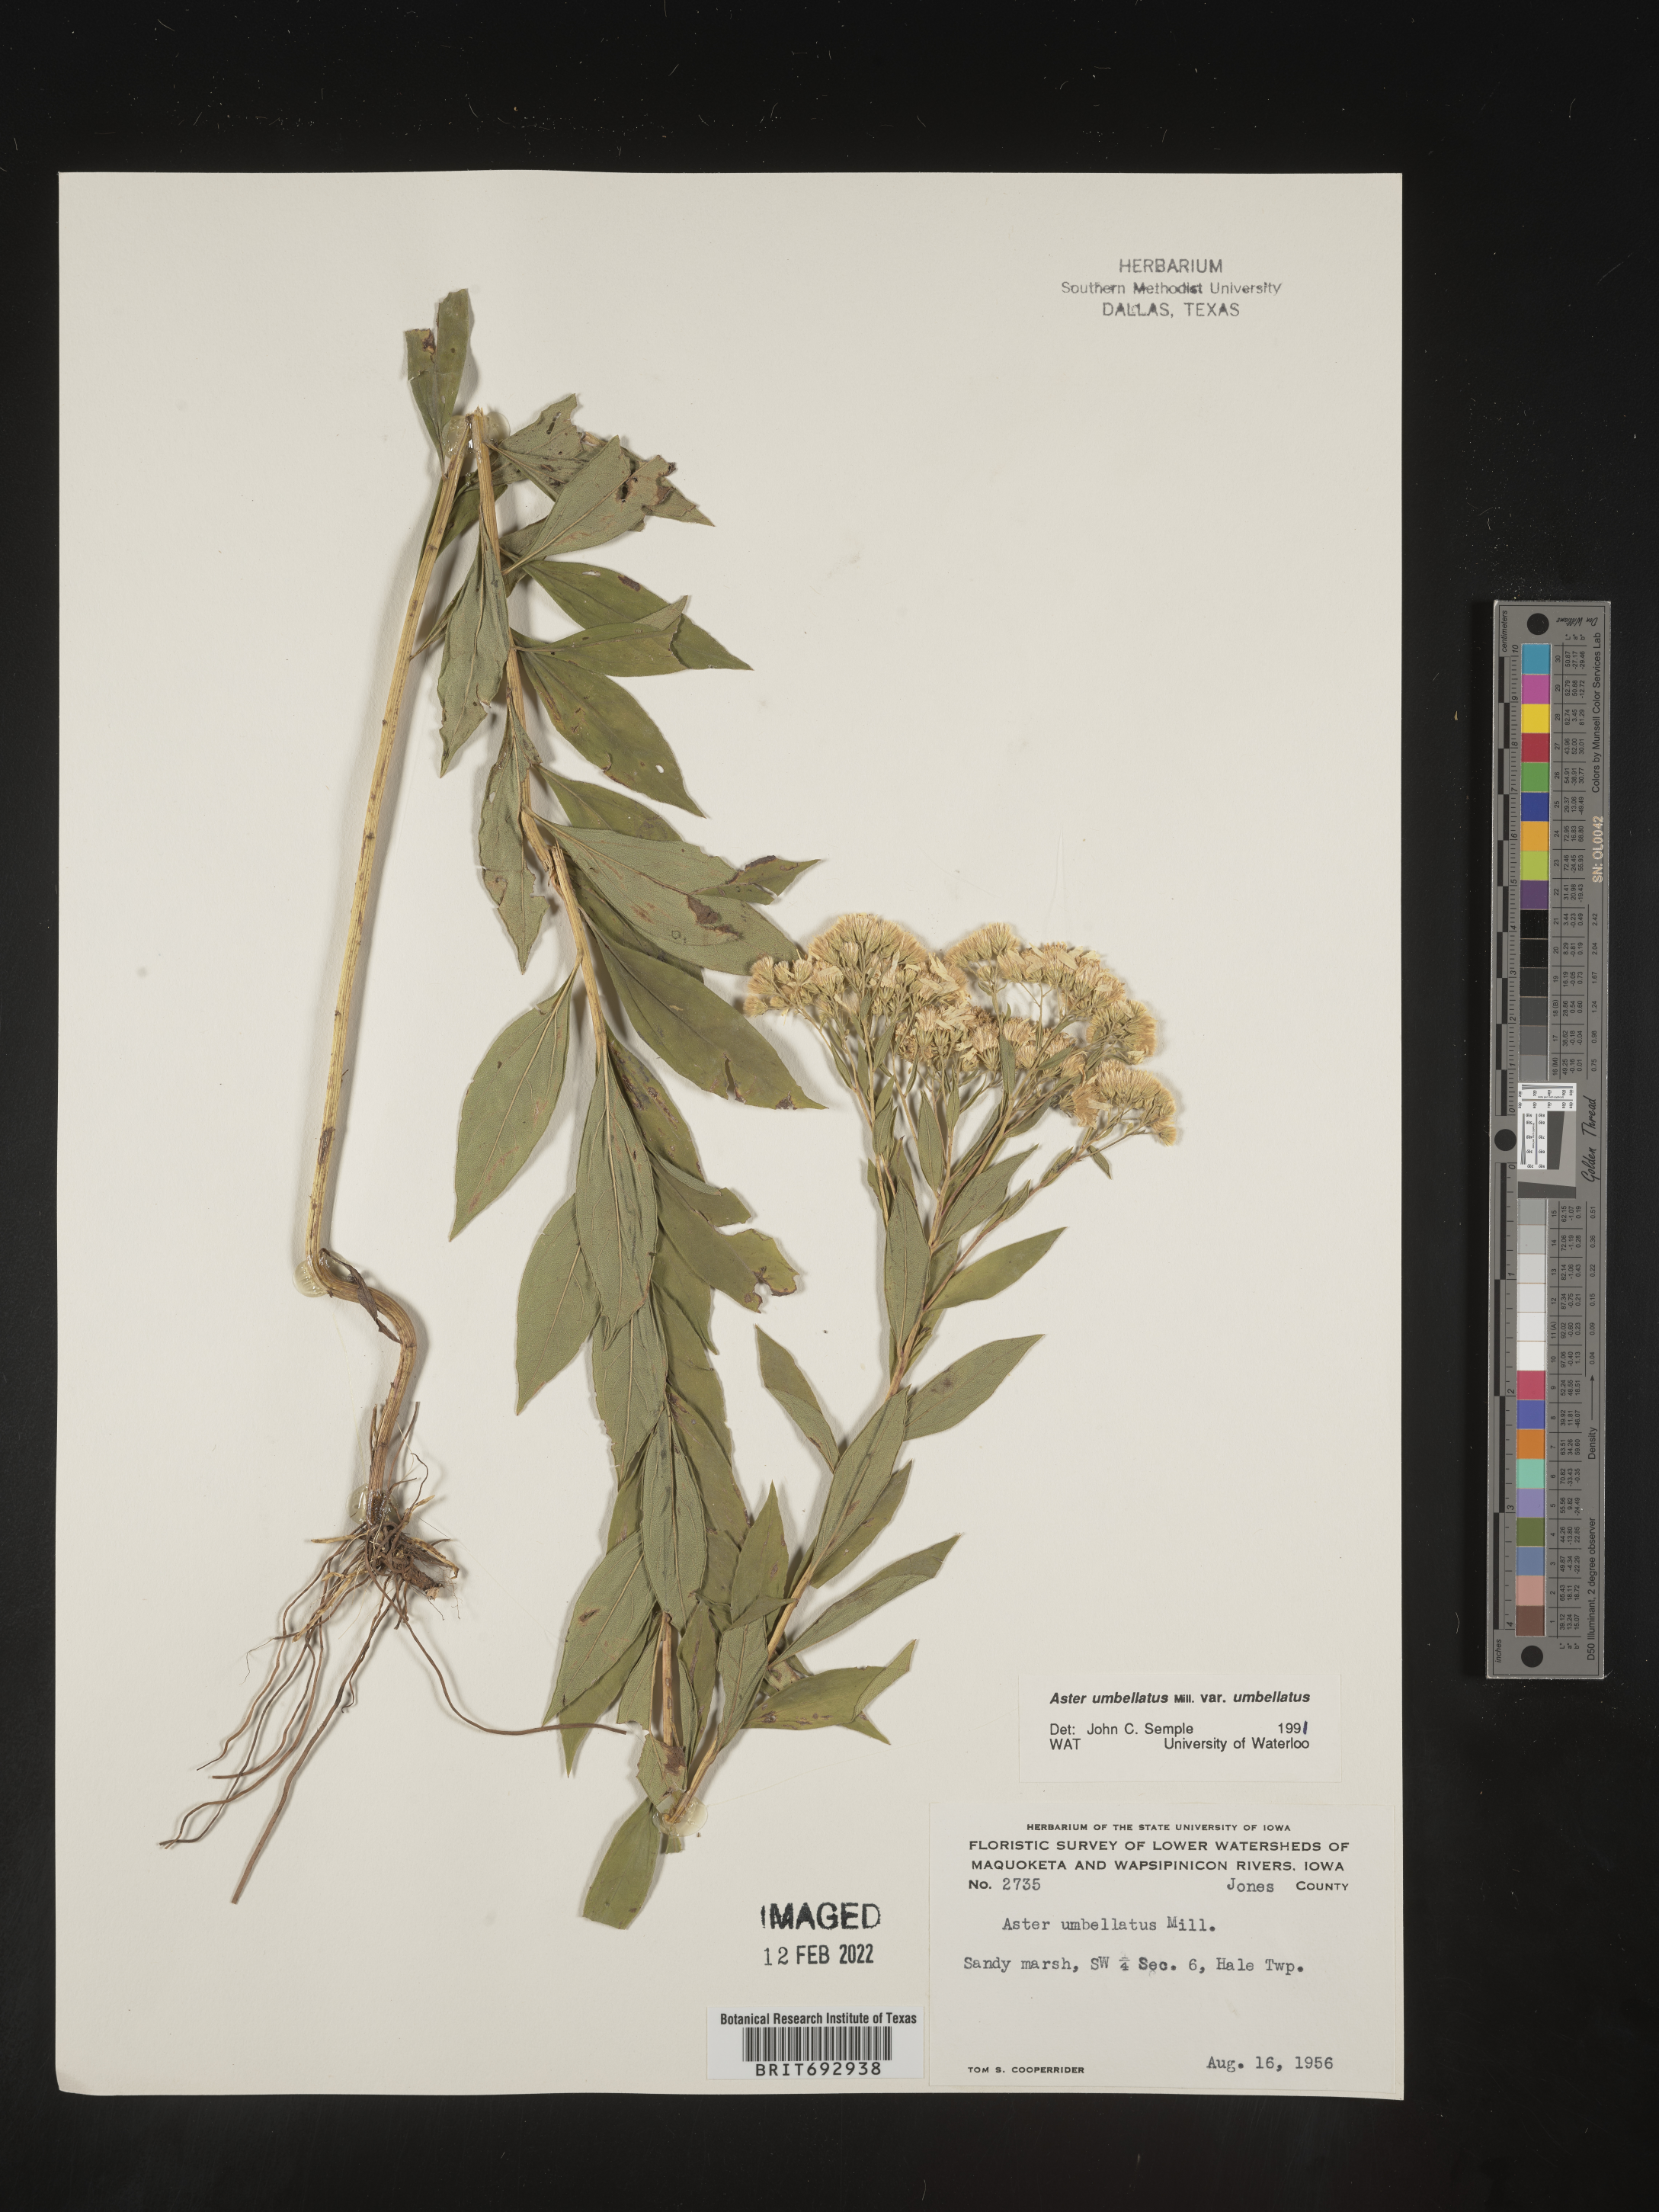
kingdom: Plantae
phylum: Tracheophyta
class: Magnoliopsida
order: Asterales
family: Asteraceae
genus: Doellingeria
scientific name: Doellingeria umbellata
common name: Flat-top white aster
